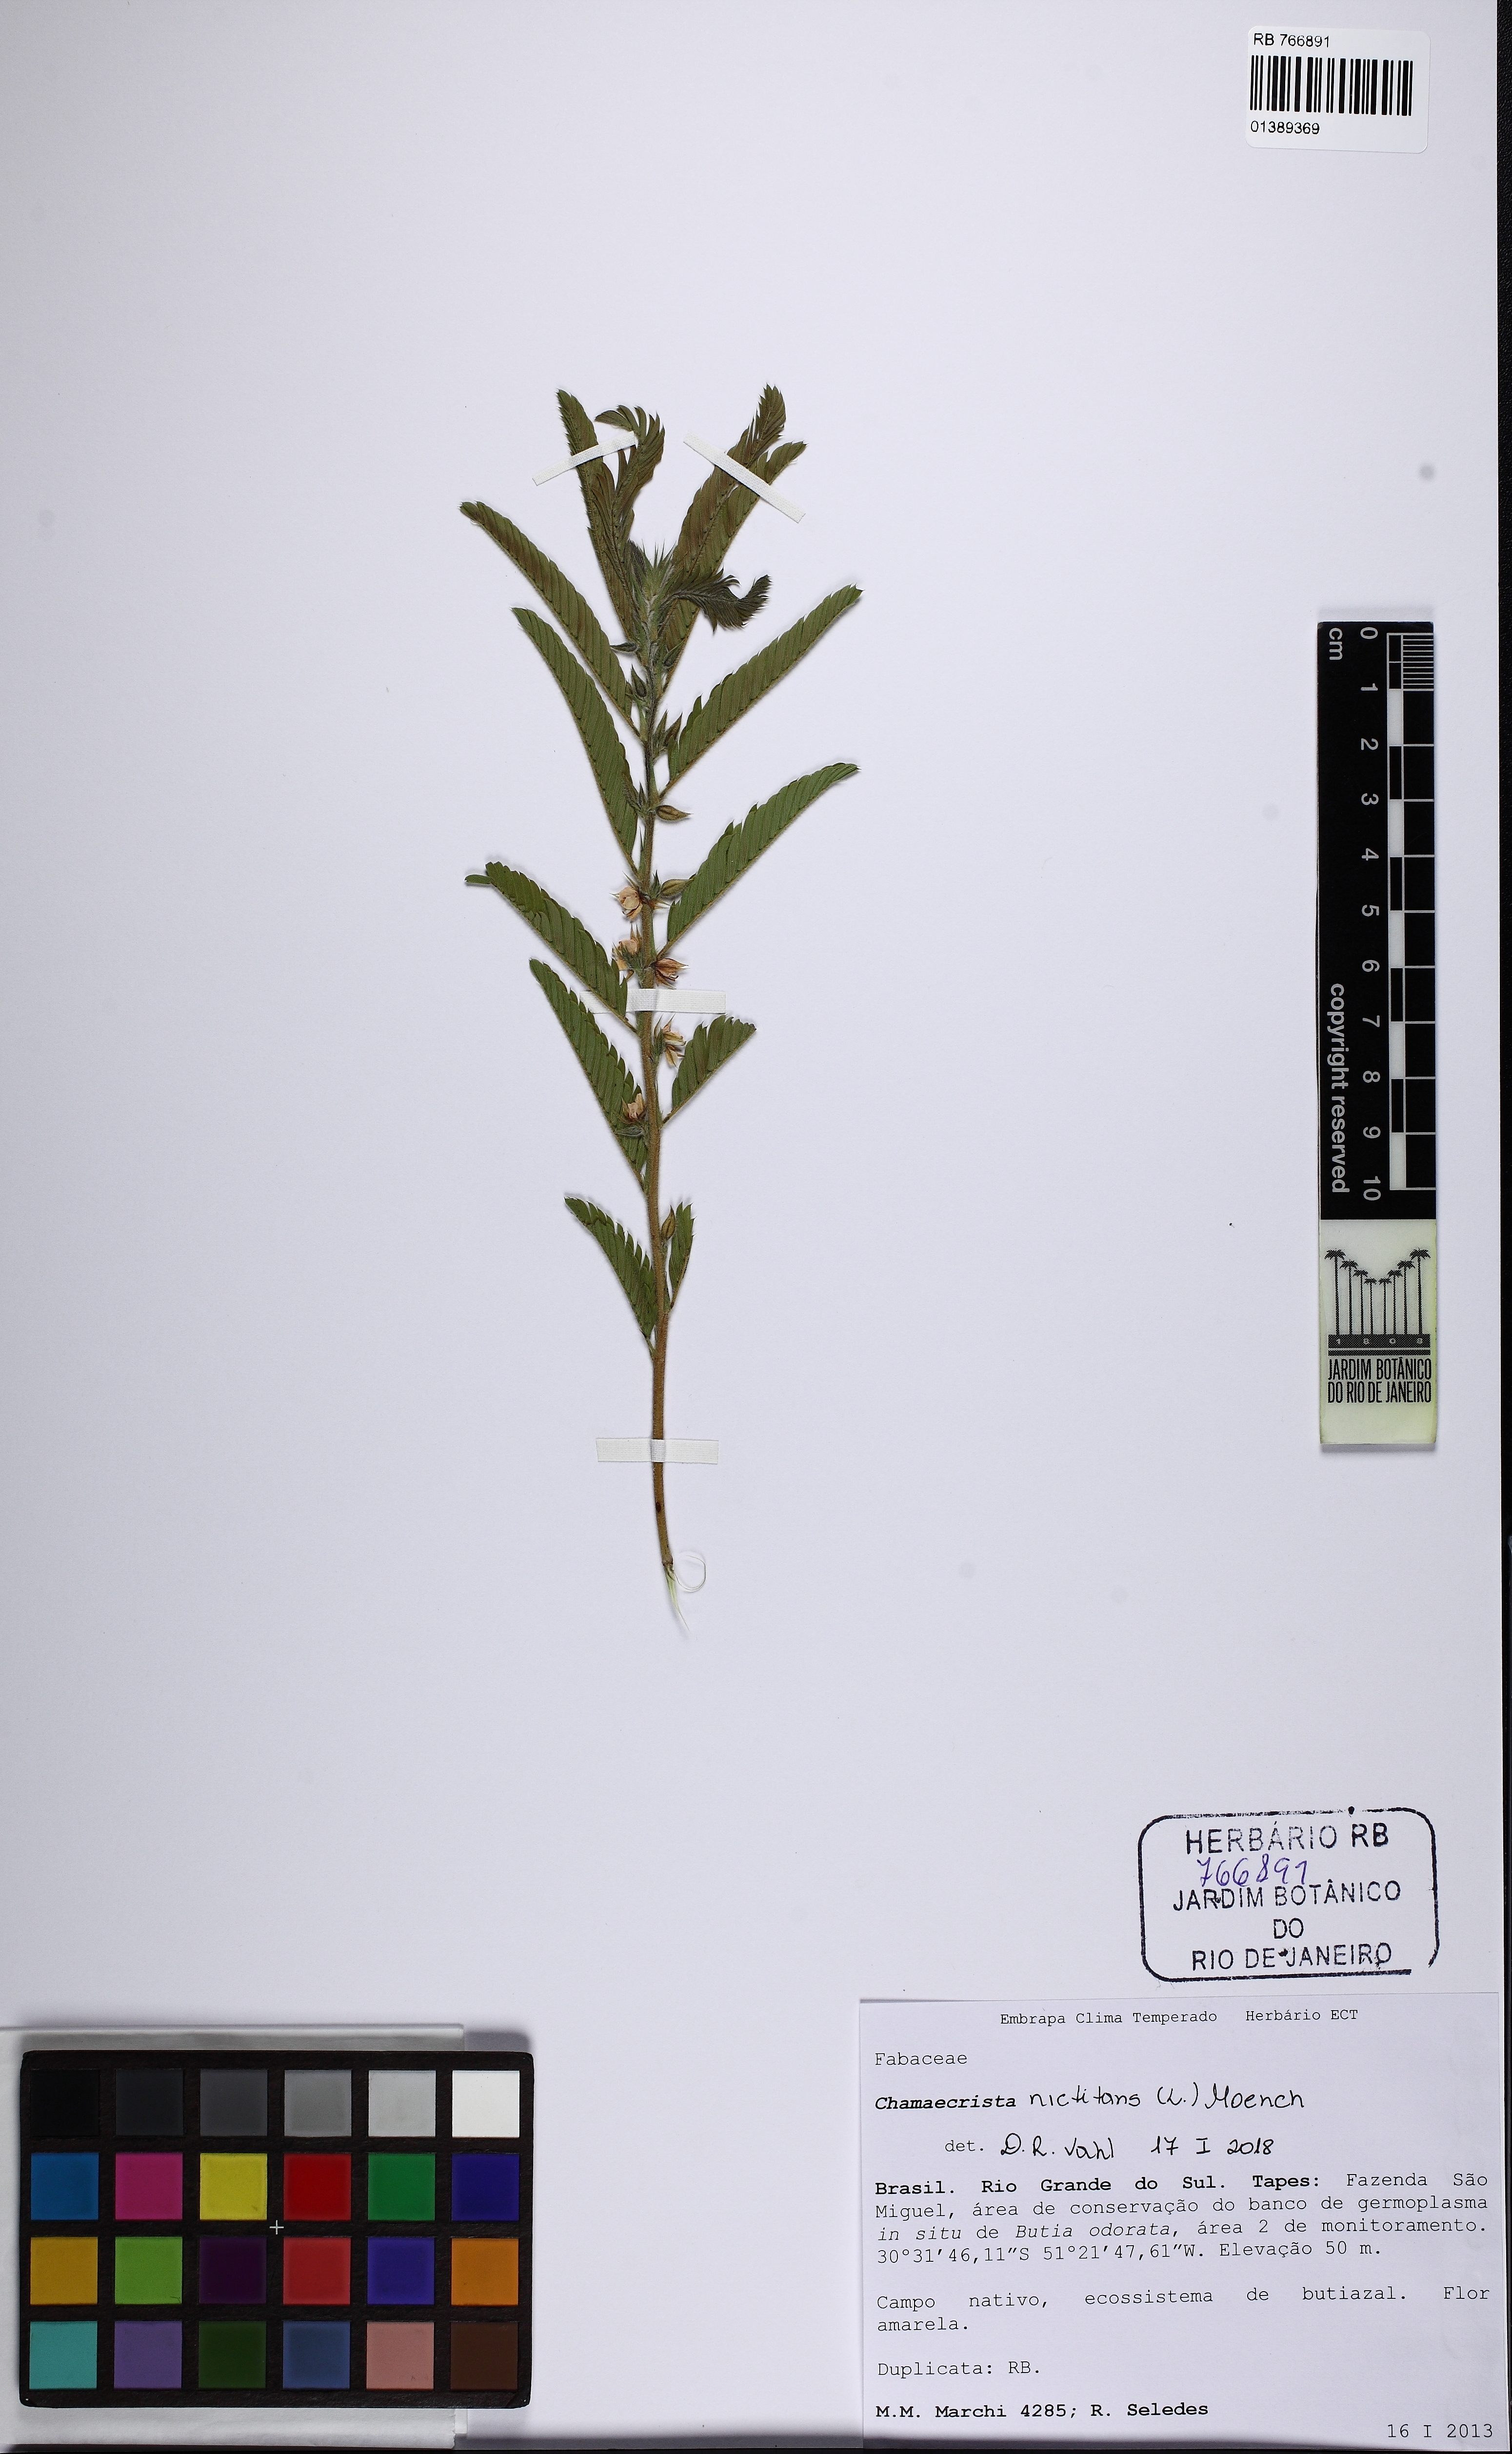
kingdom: Plantae
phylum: Tracheophyta
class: Magnoliopsida
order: Fabales
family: Fabaceae
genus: Chamaecrista
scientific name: Chamaecrista nictitans
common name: Sensitive cassia
